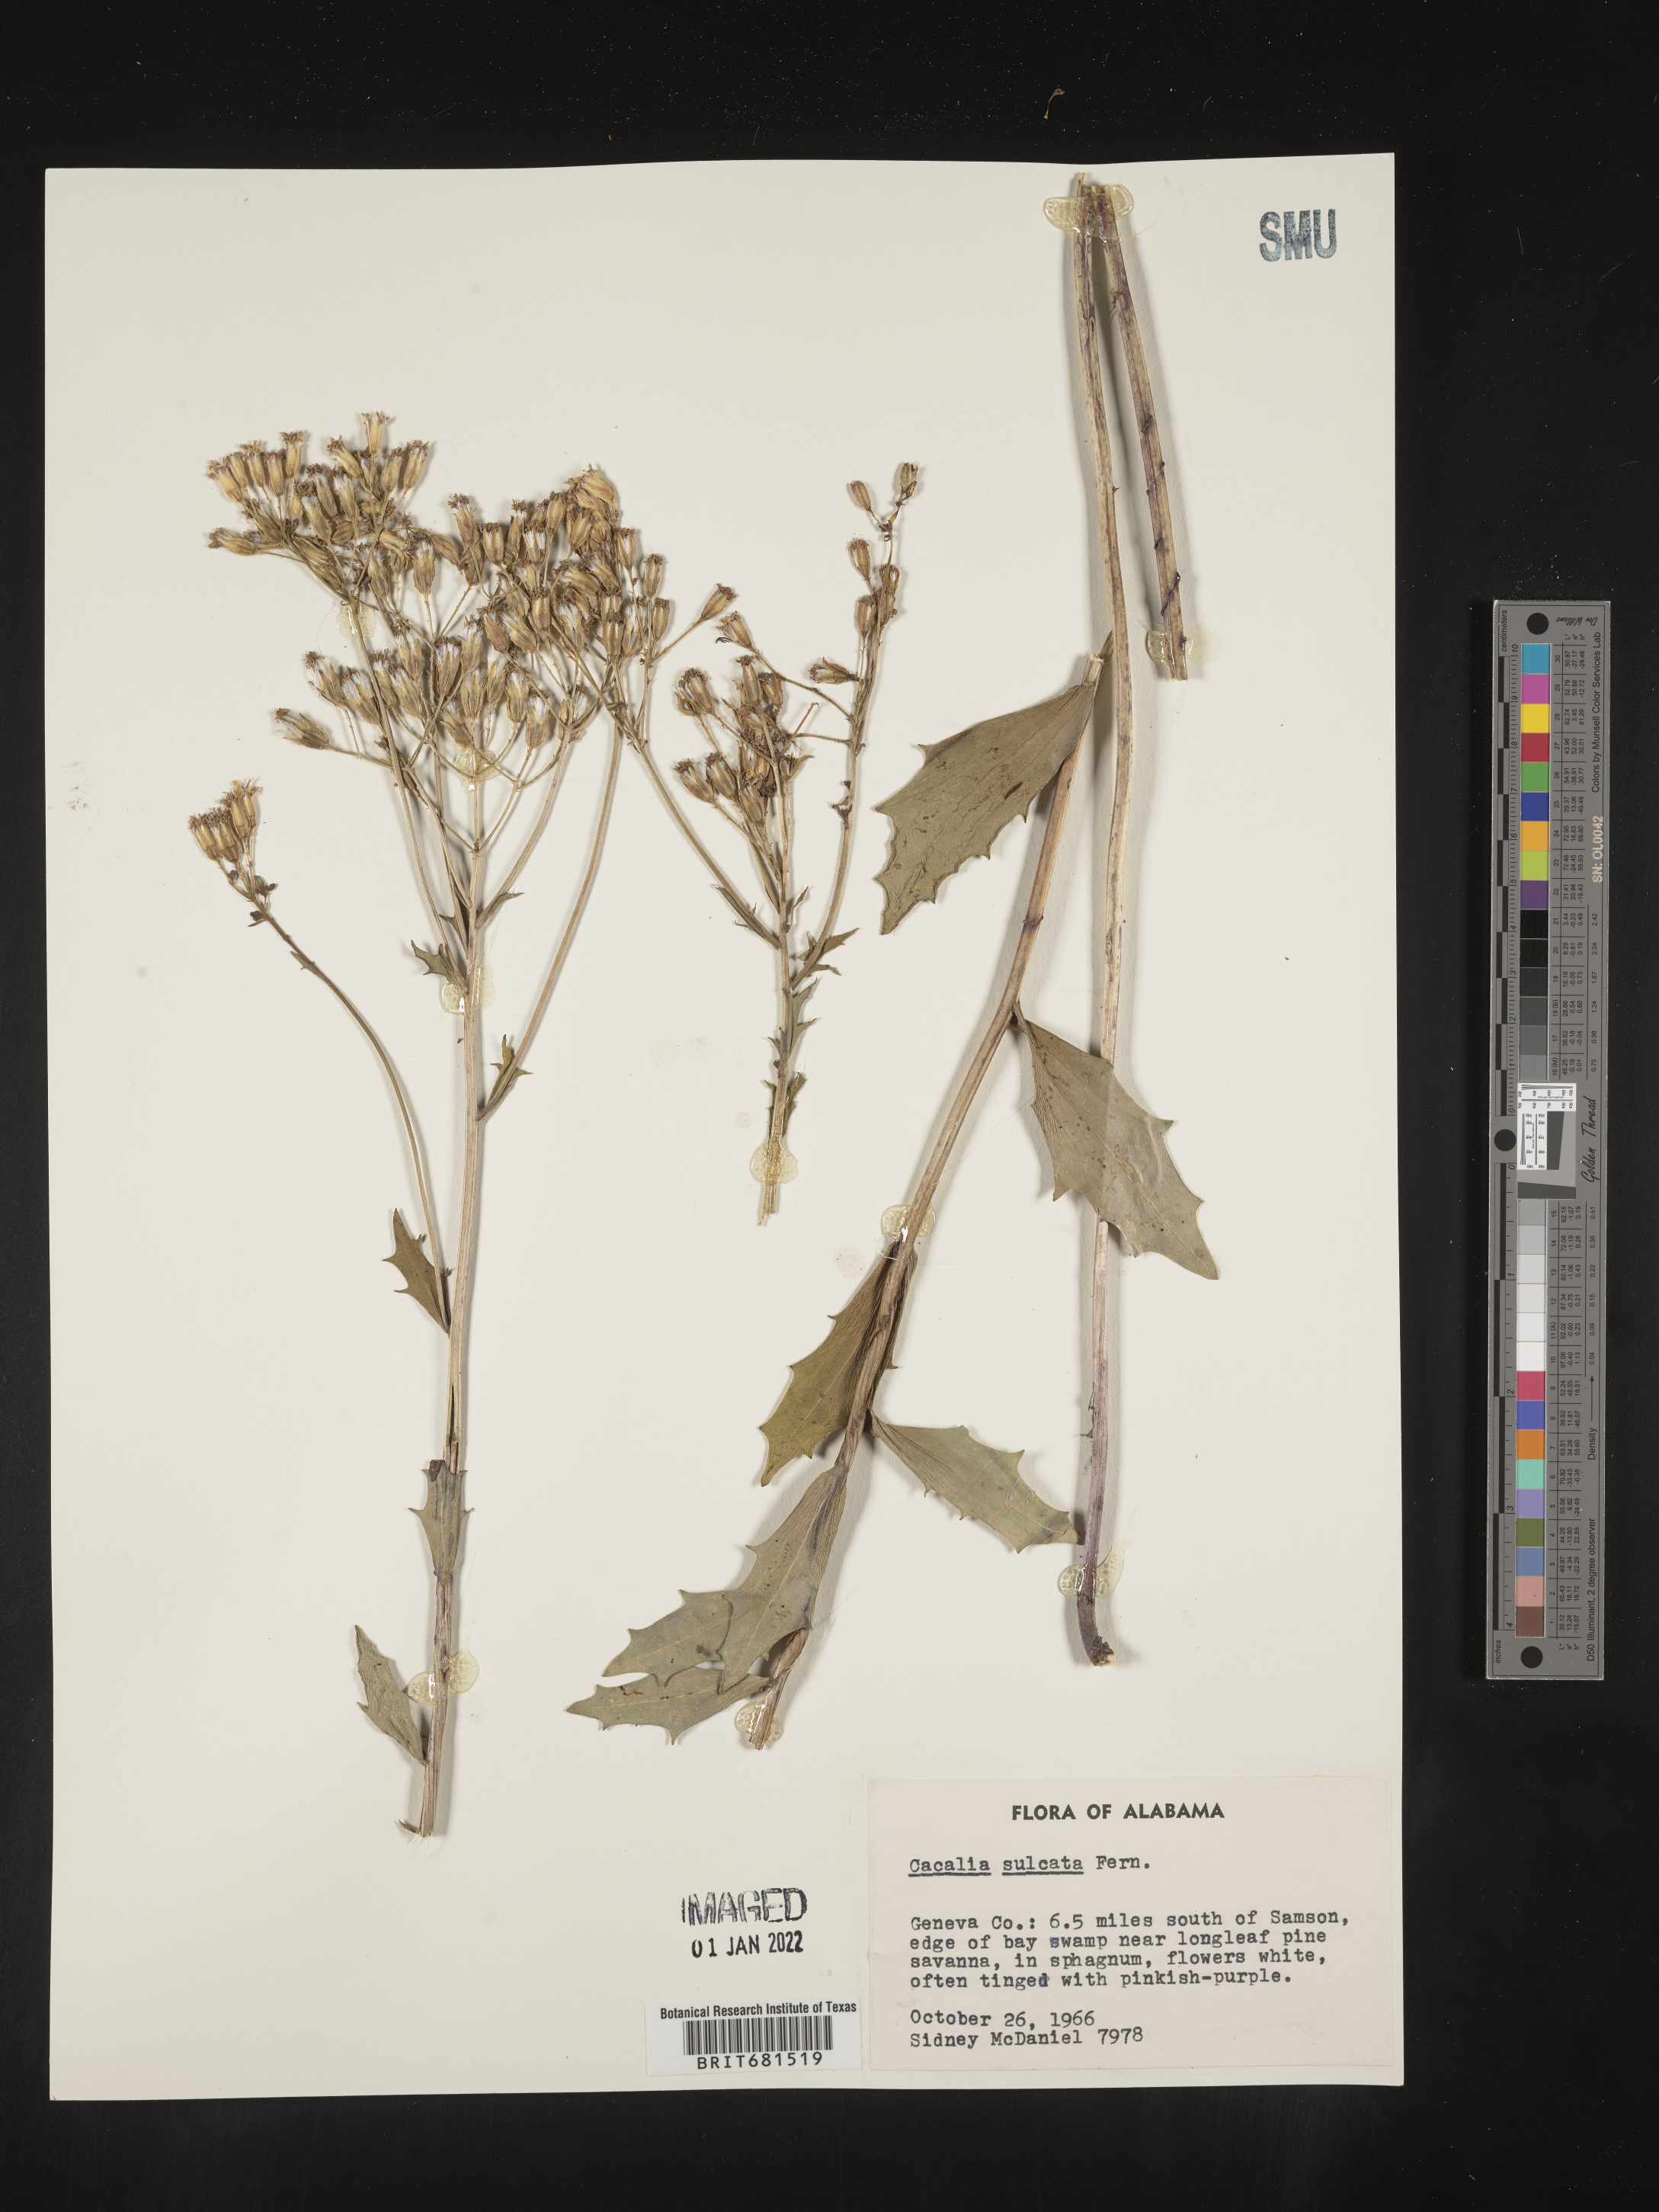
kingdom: Plantae
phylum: Tracheophyta
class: Magnoliopsida
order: Asterales
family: Asteraceae
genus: Arnoglossum
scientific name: Arnoglossum sulcatum
